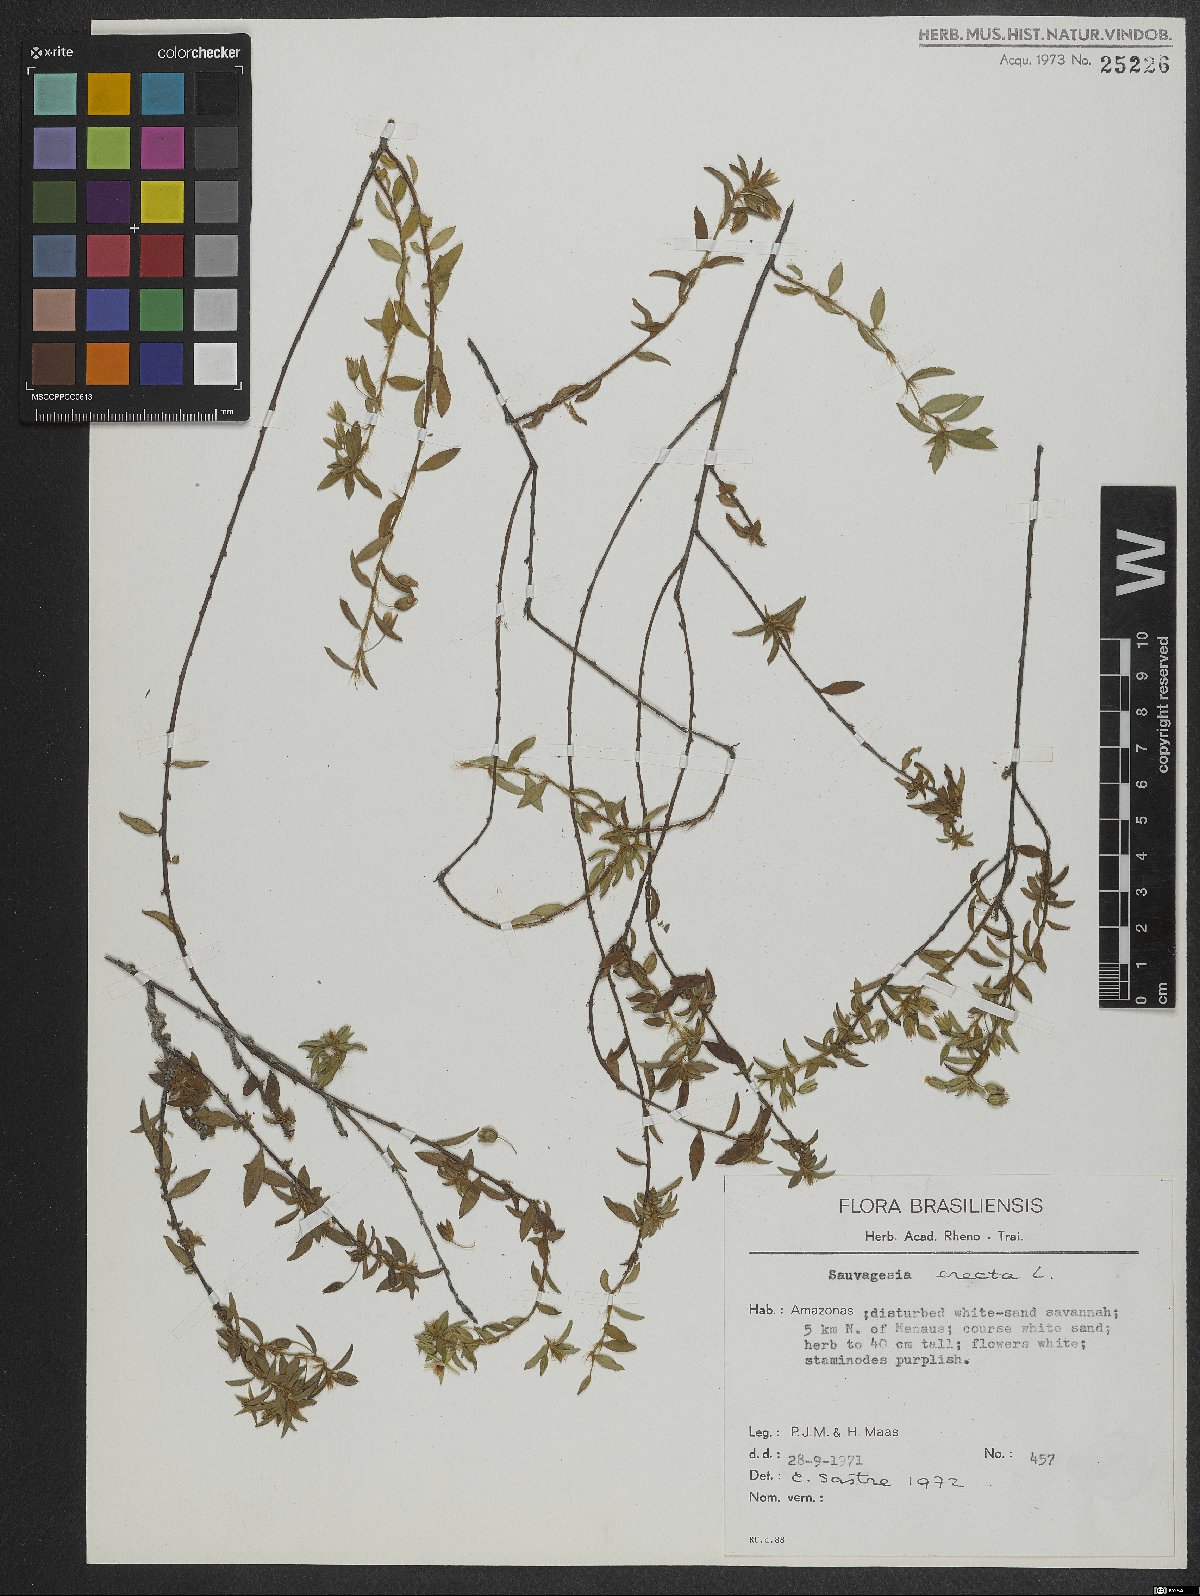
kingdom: Plantae
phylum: Tracheophyta
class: Magnoliopsida
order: Malpighiales
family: Ochnaceae
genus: Sauvagesia
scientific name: Sauvagesia elata
